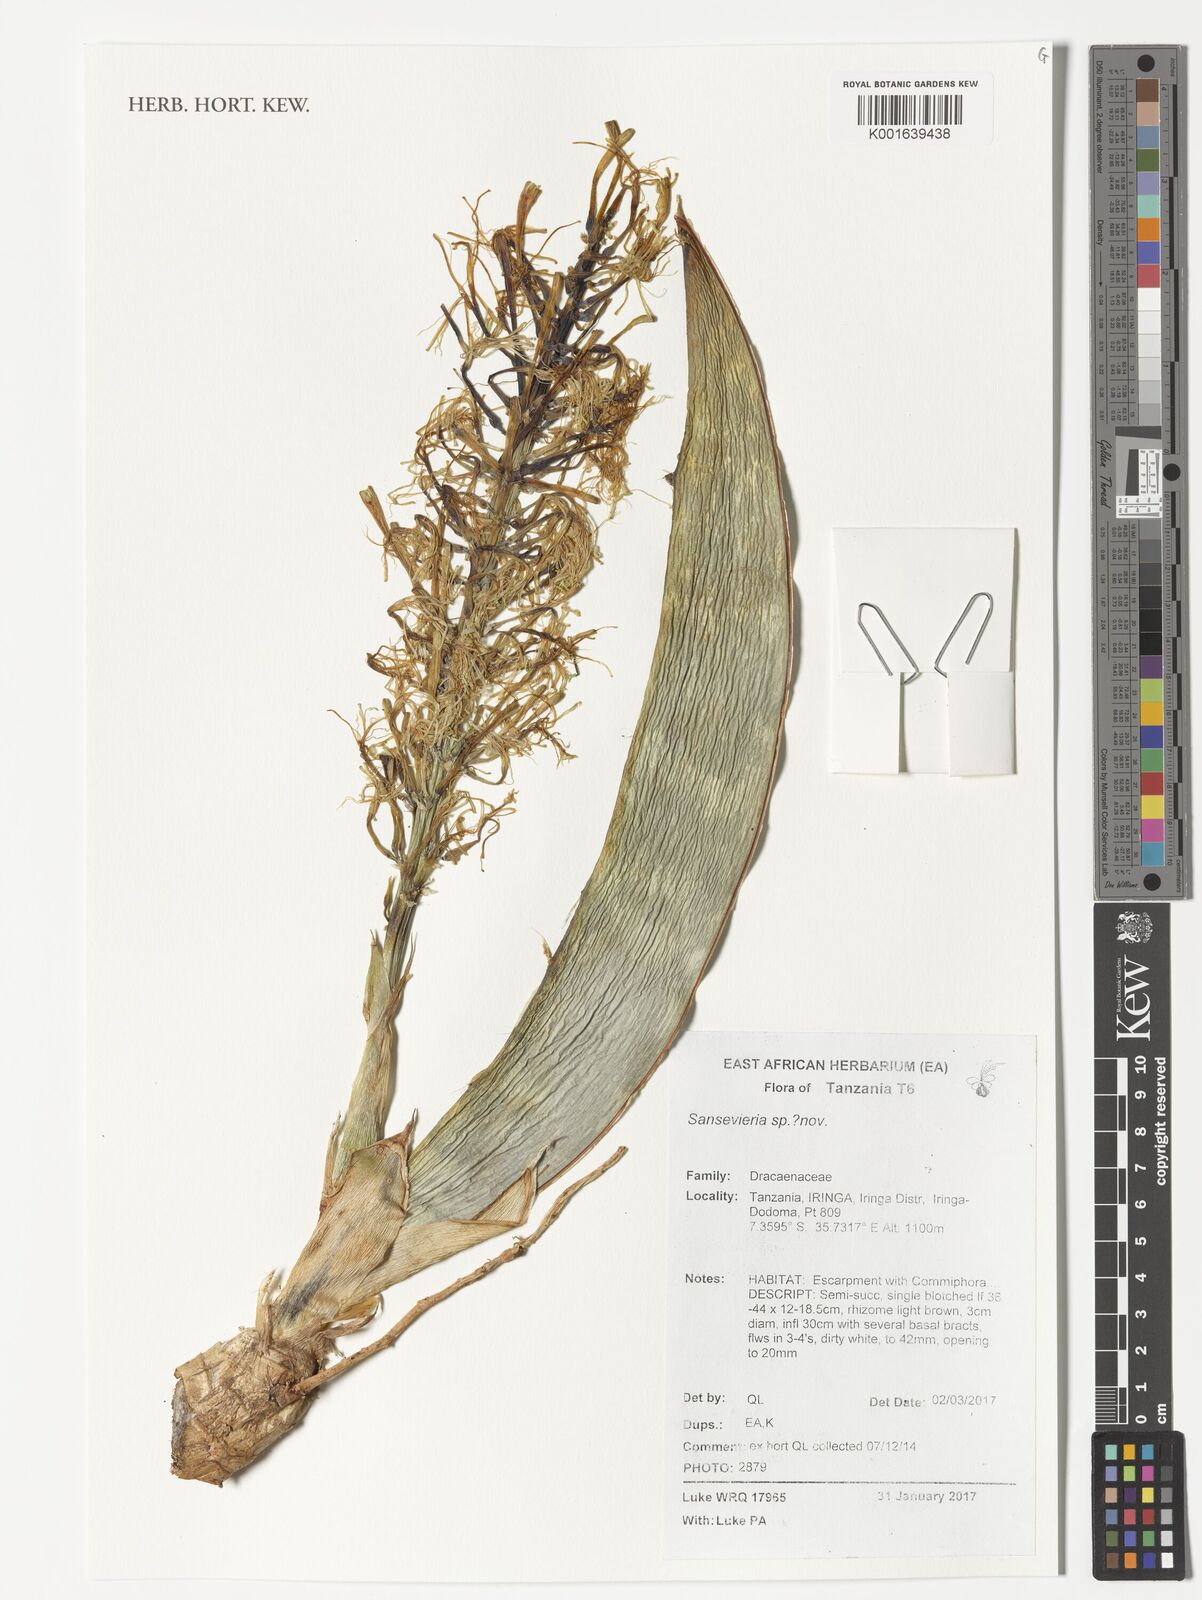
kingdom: Plantae
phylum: Tracheophyta
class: Liliopsida
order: Asparagales
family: Asparagaceae
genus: Dracaena
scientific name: Dracaena
